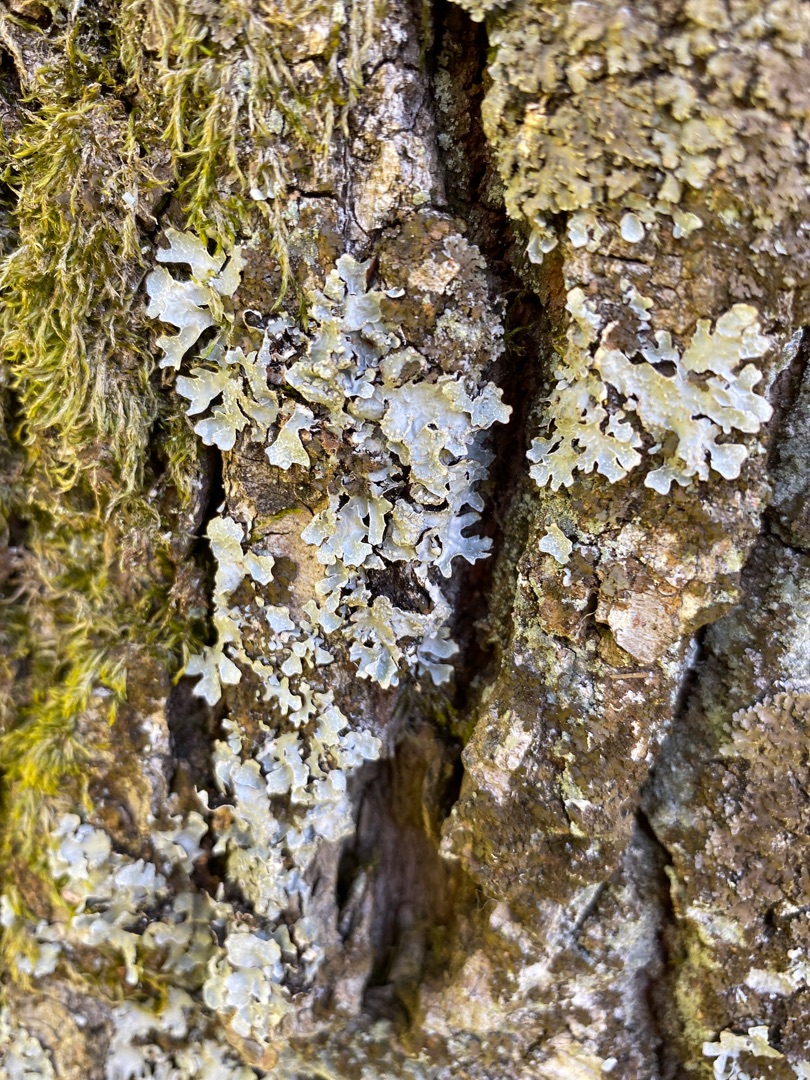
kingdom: Fungi
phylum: Ascomycota
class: Lecanoromycetes
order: Lecanorales
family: Parmeliaceae
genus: Parmelia
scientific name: Parmelia sulcata
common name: Rynket skållav
